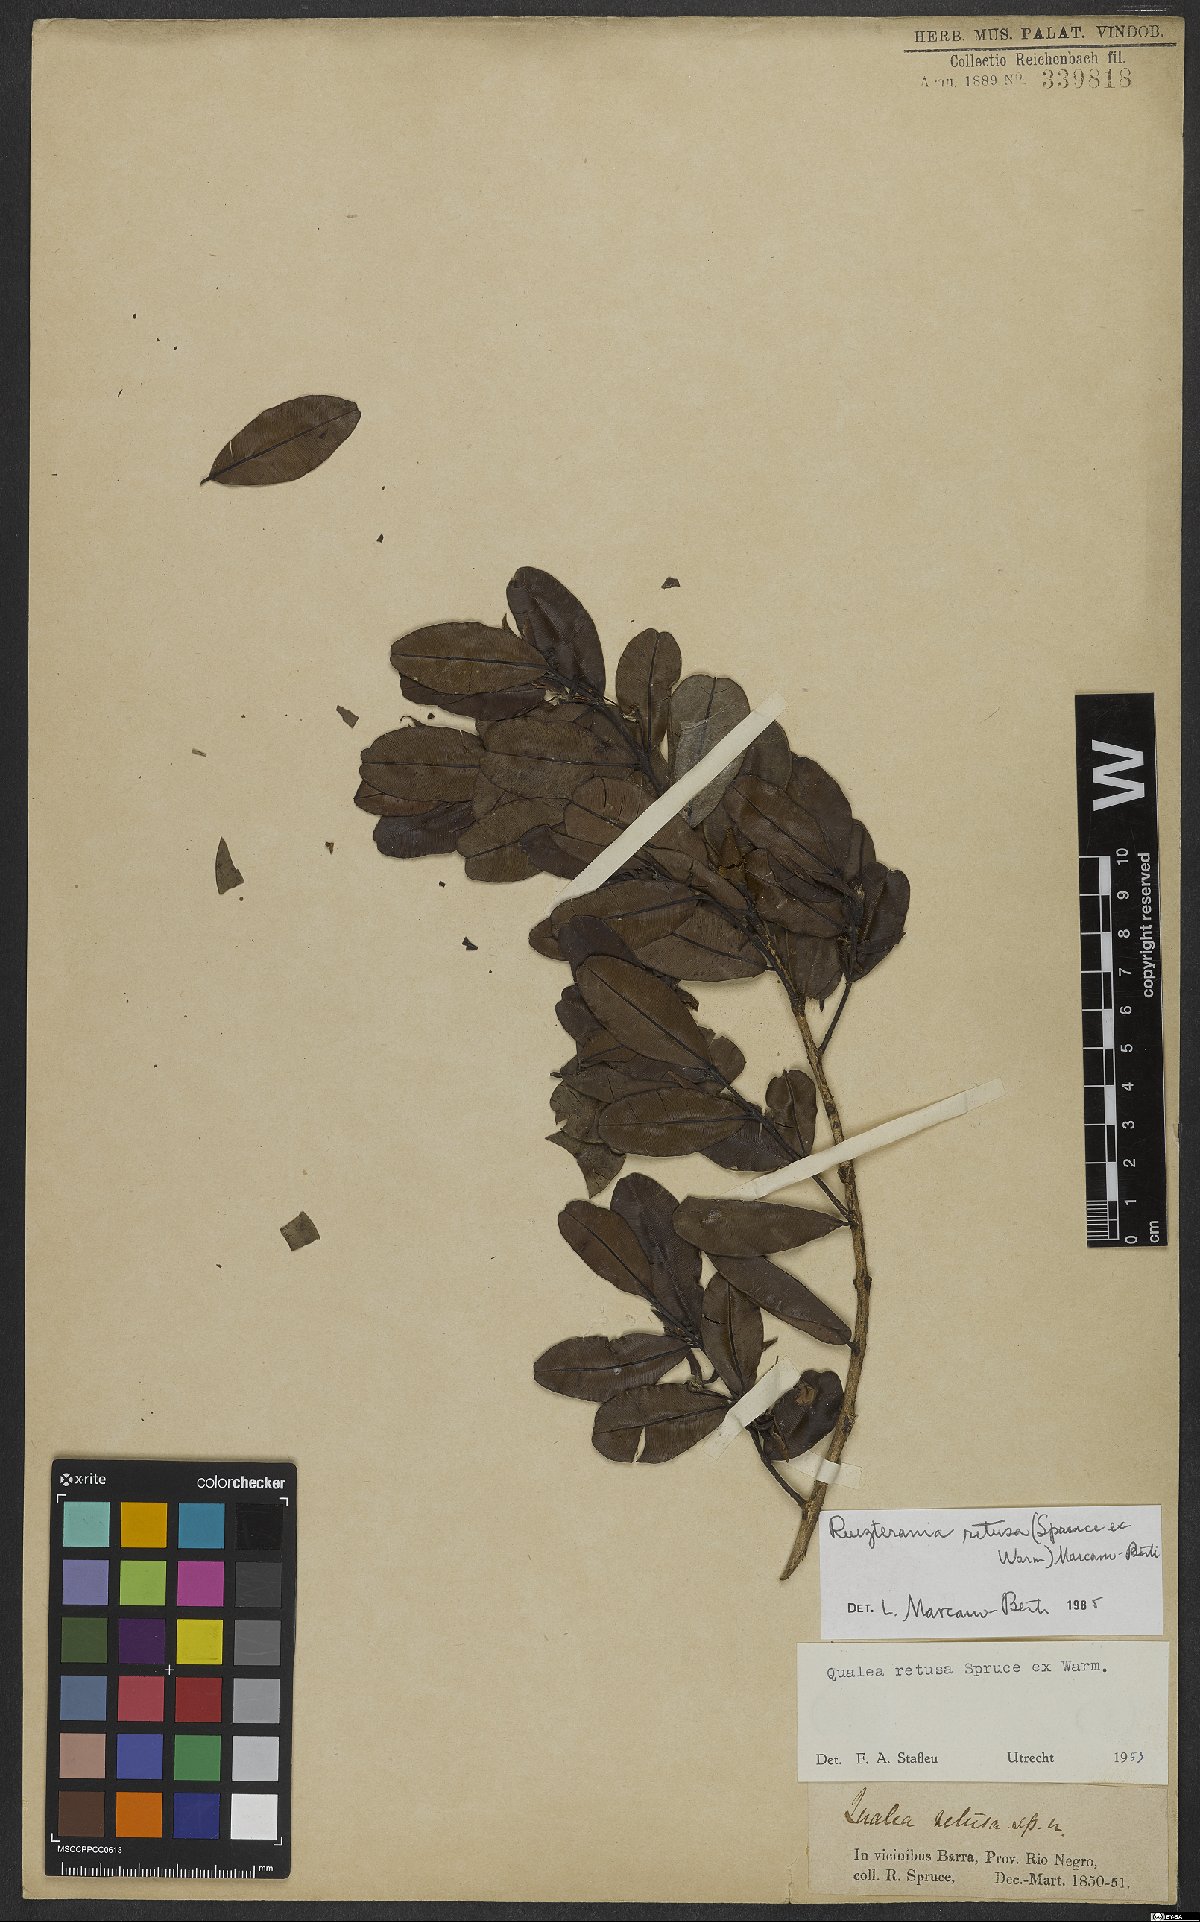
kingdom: Plantae
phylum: Tracheophyta
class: Magnoliopsida
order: Myrtales
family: Vochysiaceae
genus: Ruizterania
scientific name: Ruizterania retusa
